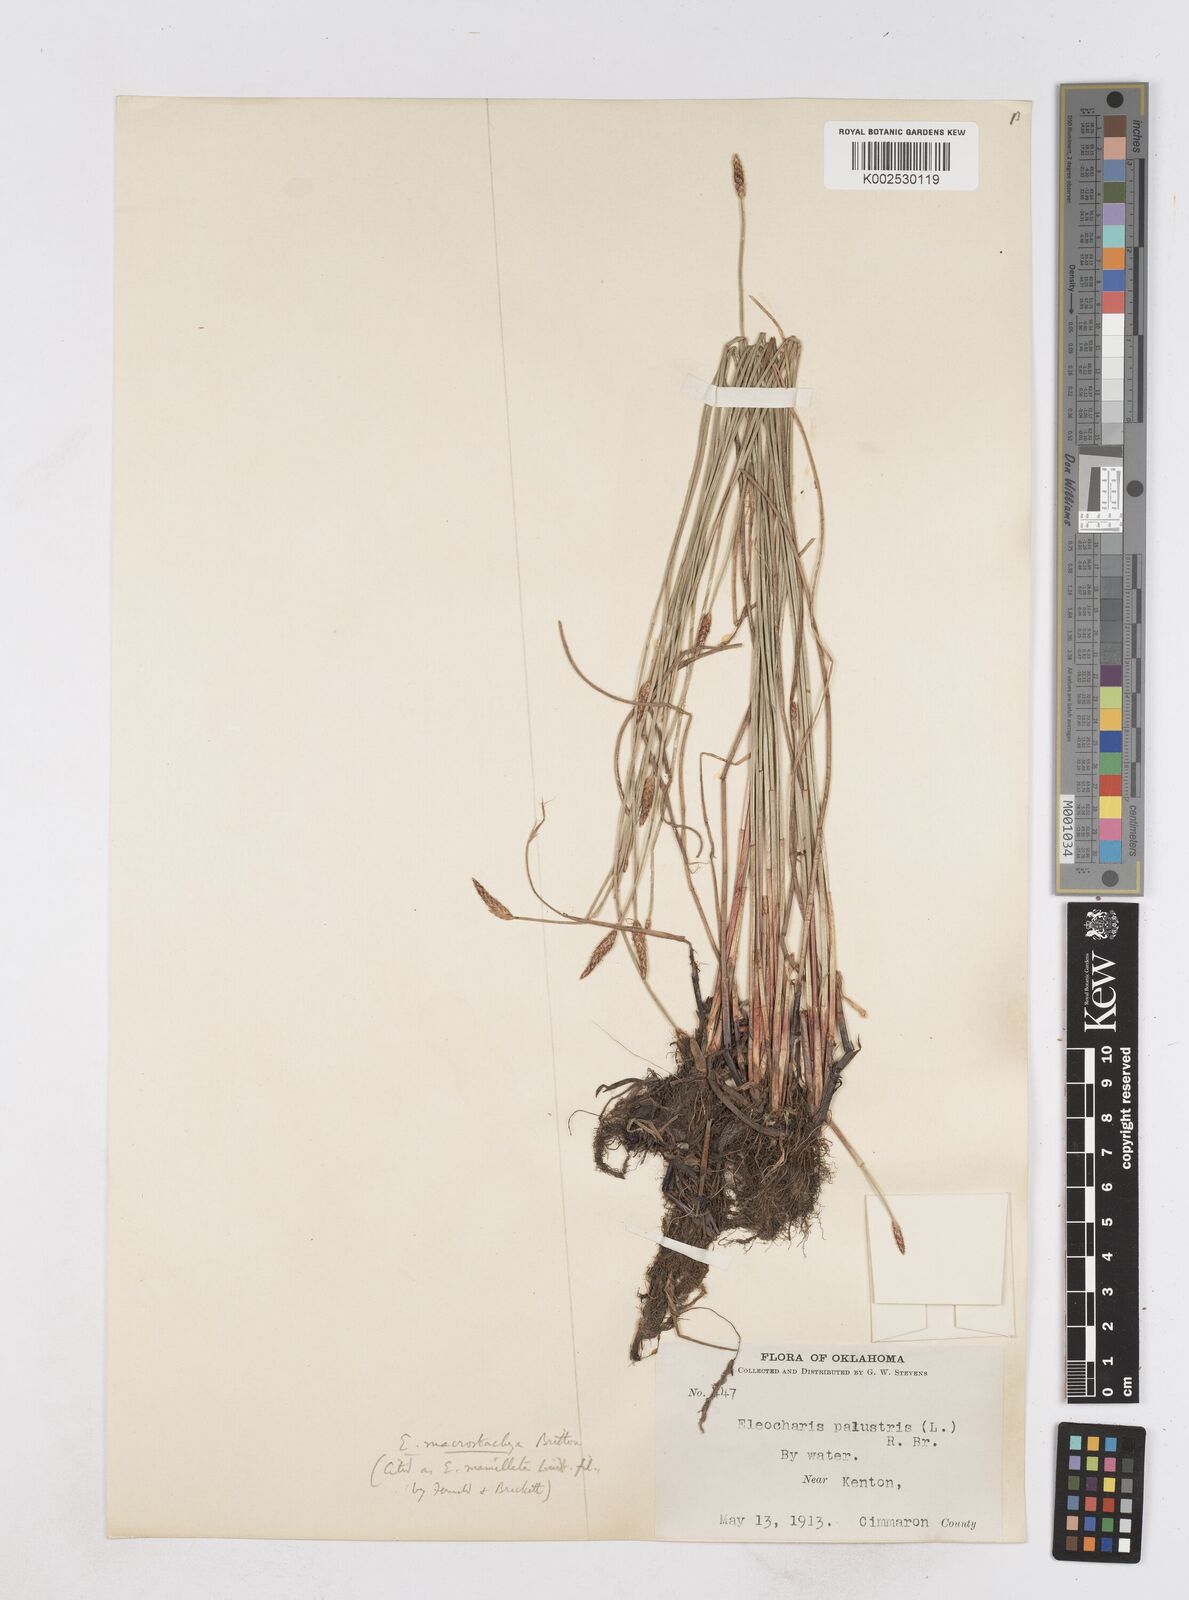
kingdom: Plantae
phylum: Tracheophyta
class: Liliopsida
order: Poales
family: Cyperaceae
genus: Eleocharis
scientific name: Eleocharis macrostachya
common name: Pale spikerush
